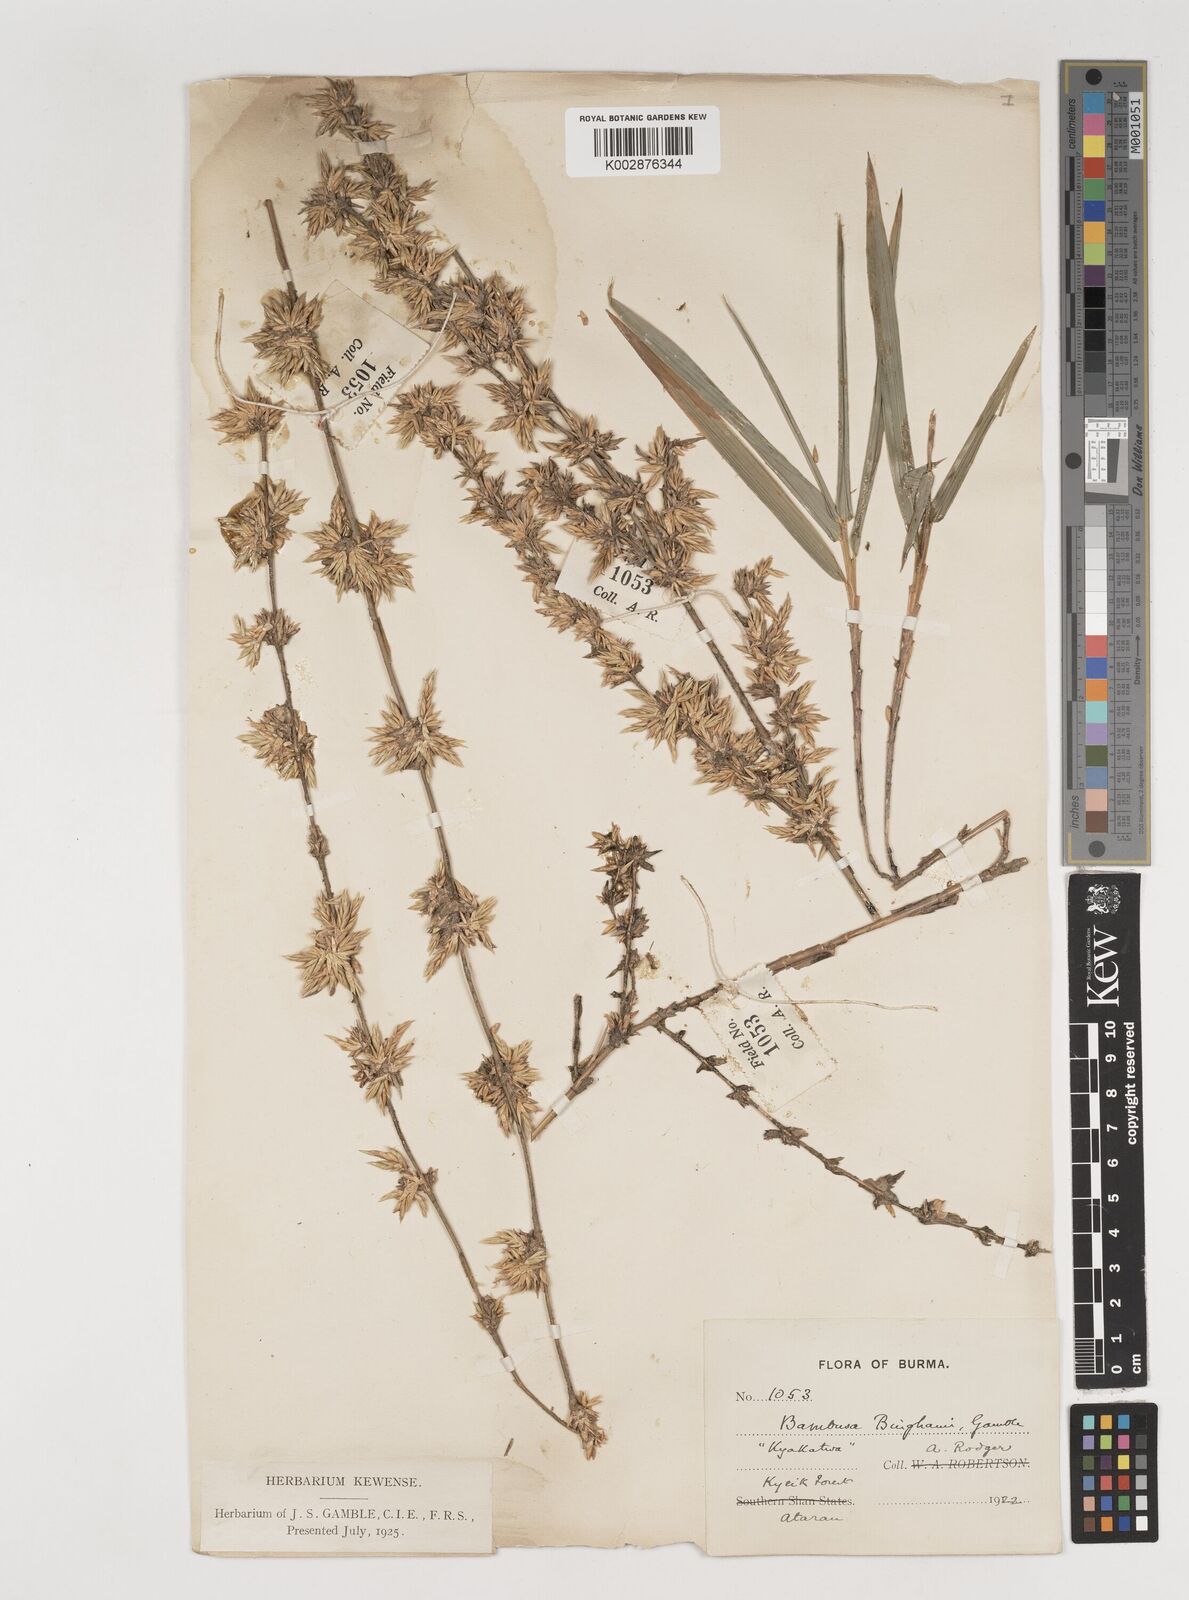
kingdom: Plantae
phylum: Tracheophyta
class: Liliopsida
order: Poales
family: Poaceae
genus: Bambusa
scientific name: Bambusa binghamii
